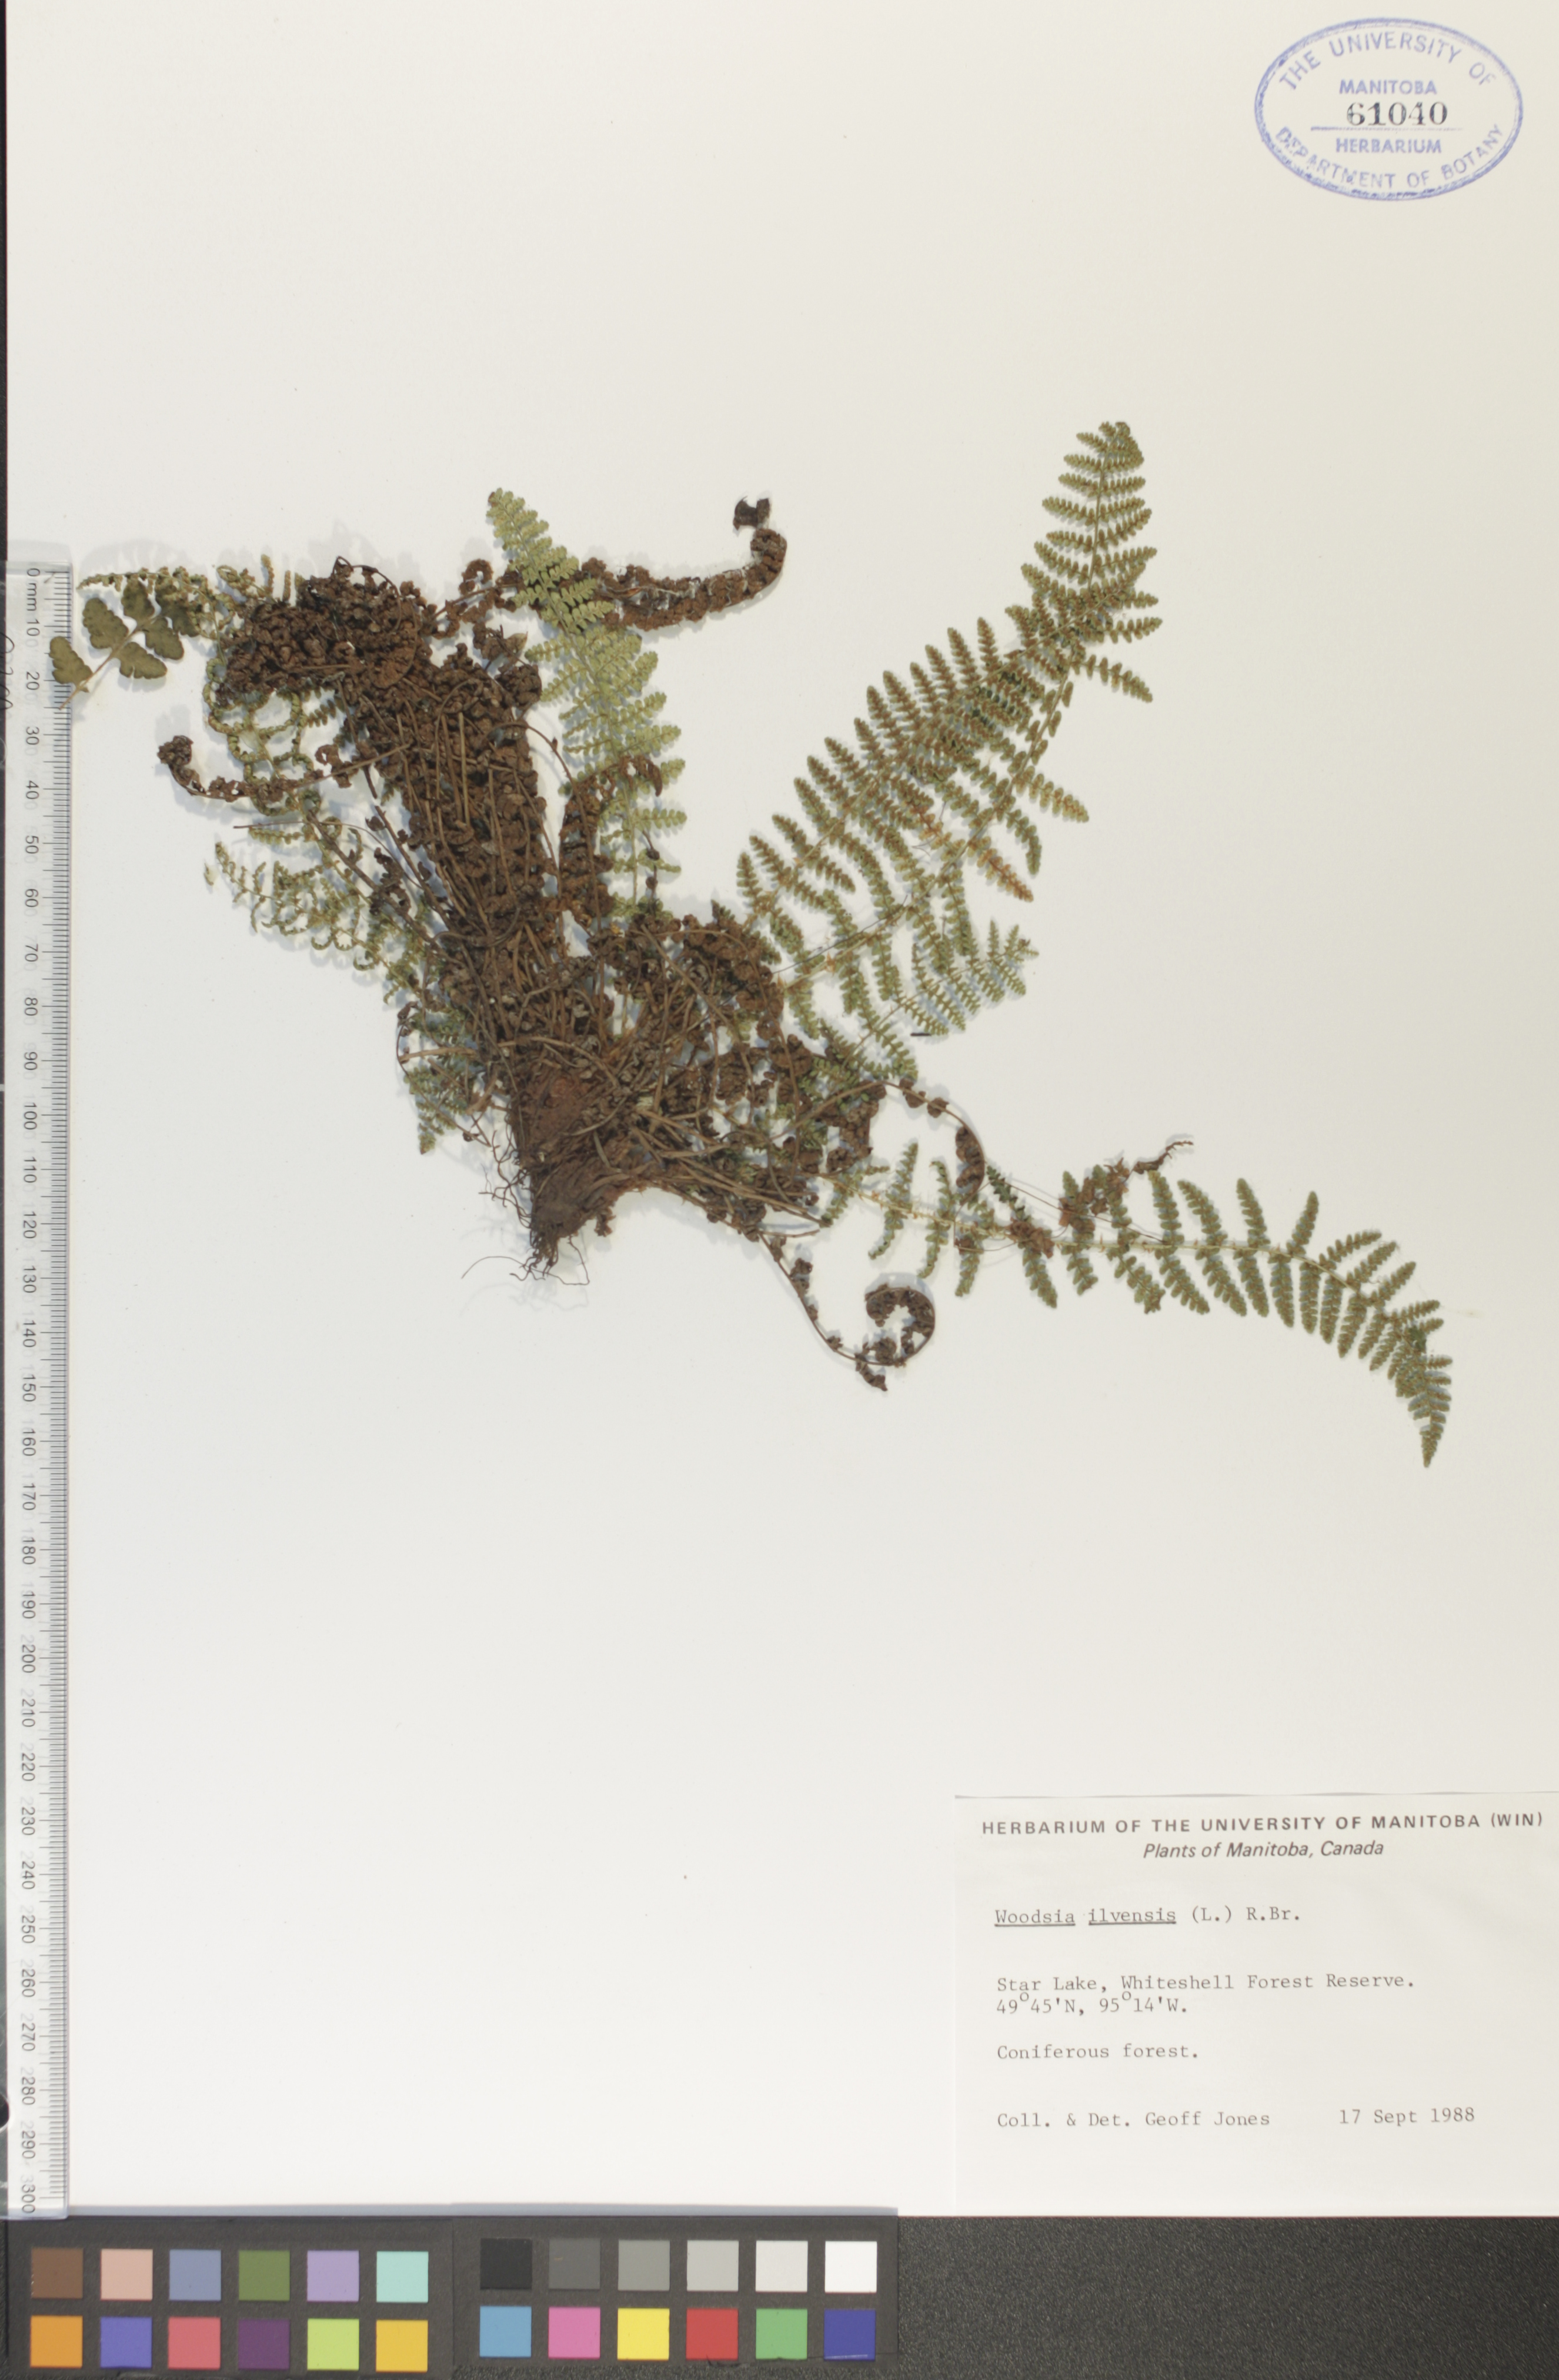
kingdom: Plantae
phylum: Tracheophyta
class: Polypodiopsida
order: Polypodiales
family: Woodsiaceae
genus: Woodsia
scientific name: Woodsia ilvensis
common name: Fragrant woodsia
